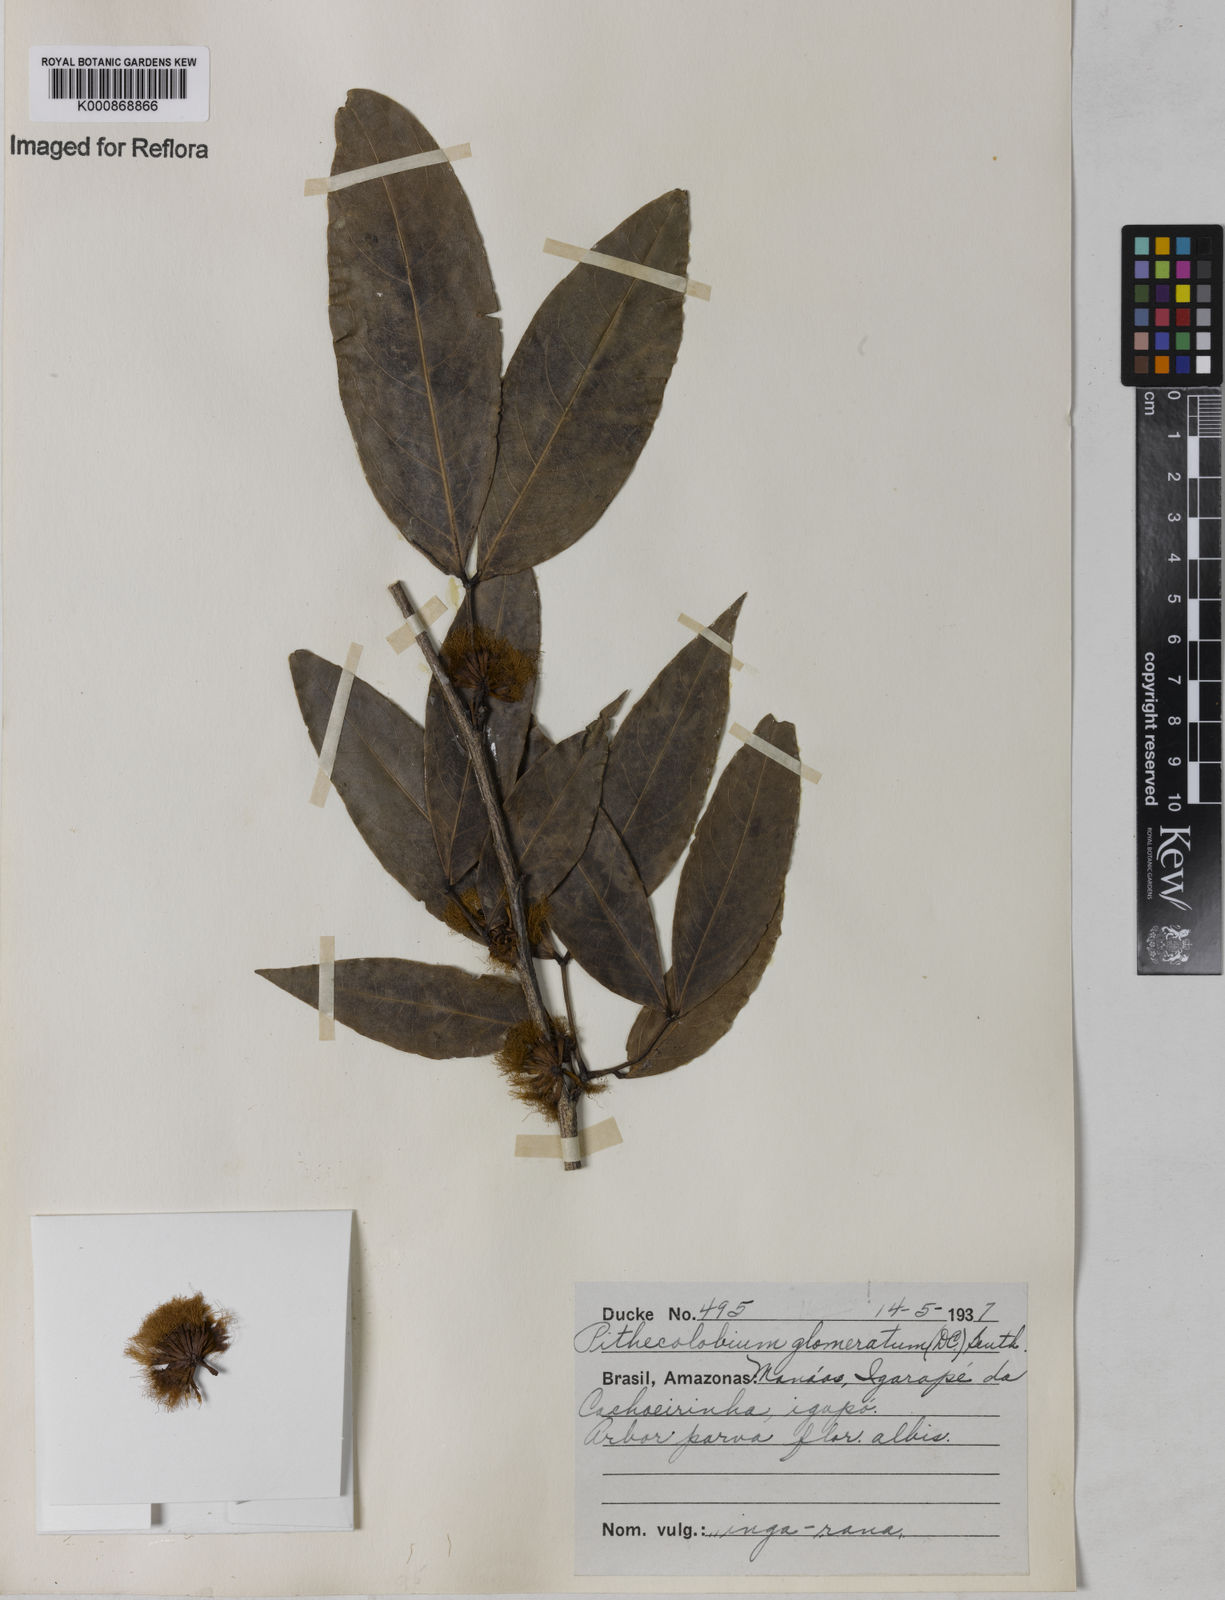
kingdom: Plantae
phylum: Tracheophyta
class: Magnoliopsida
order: Fabales
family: Fabaceae
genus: Zygia
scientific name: Zygia cataractae
